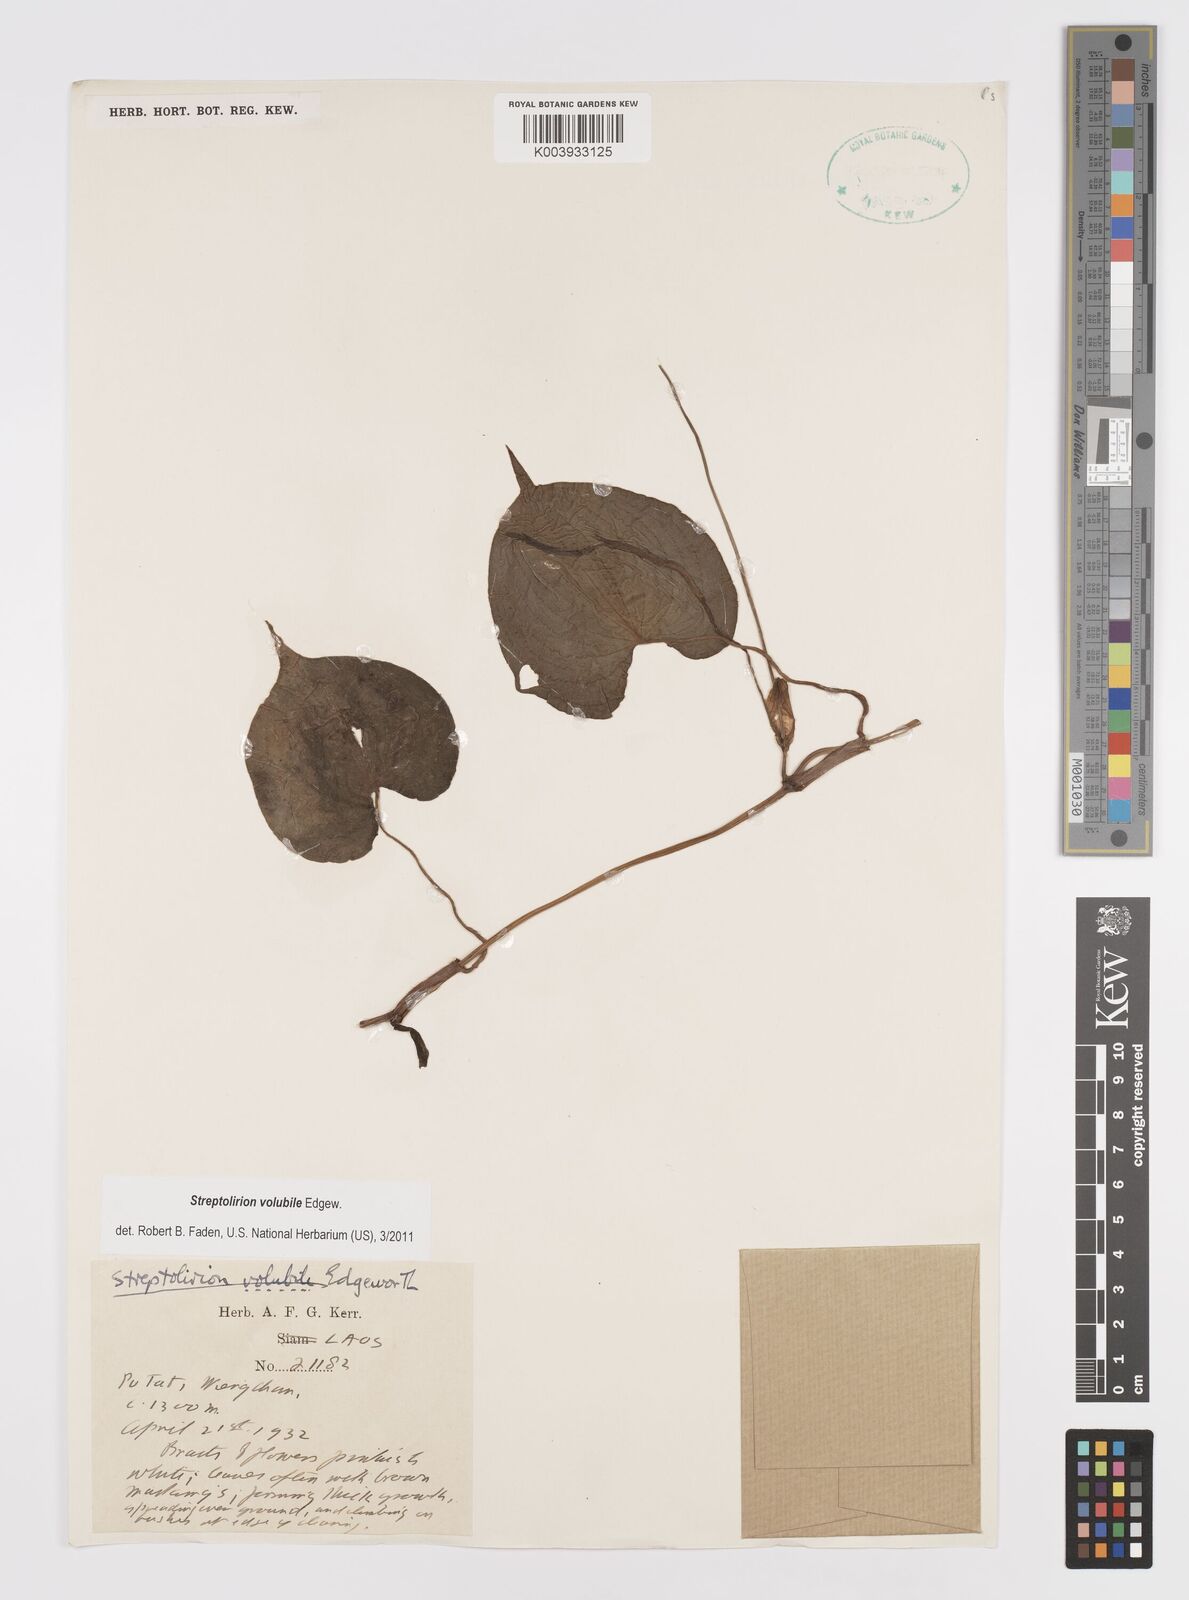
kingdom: Plantae
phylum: Tracheophyta
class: Liliopsida
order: Commelinales
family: Commelinaceae
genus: Streptolirion
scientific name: Streptolirion volubile
